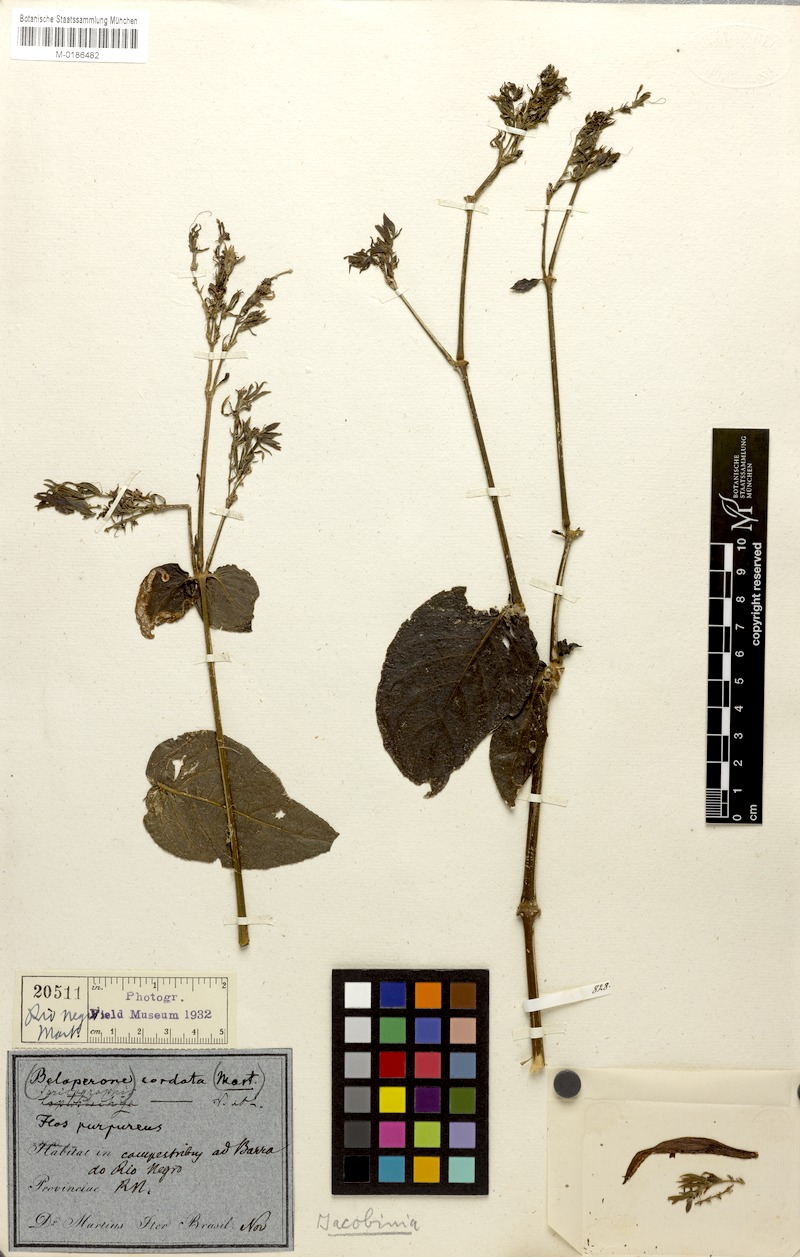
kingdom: Plantae
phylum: Tracheophyta
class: Magnoliopsida
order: Lamiales
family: Acanthaceae
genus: Justicia
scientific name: Justicia Jacobinia cordata
